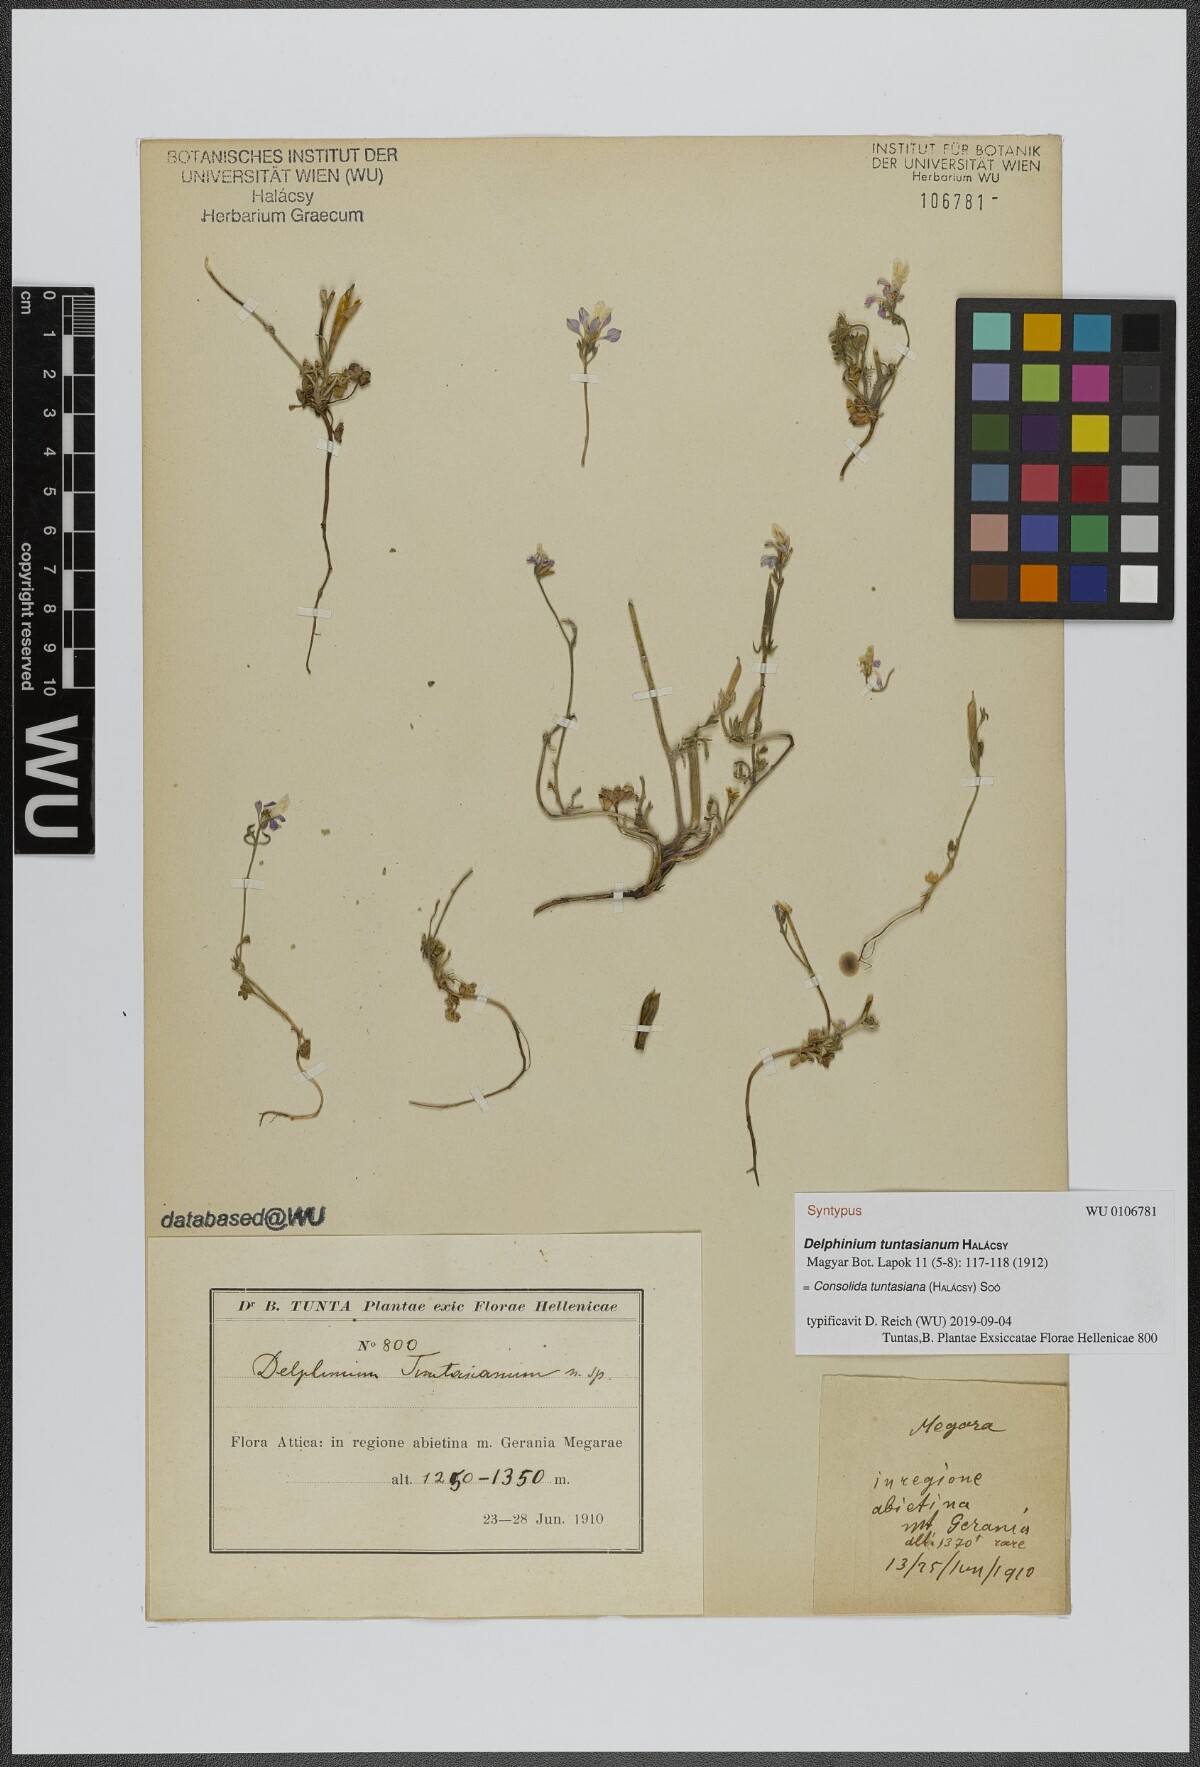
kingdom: Plantae
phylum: Tracheophyta
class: Magnoliopsida
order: Ranunculales
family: Ranunculaceae
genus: Delphinium
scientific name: Delphinium tuntasianum
